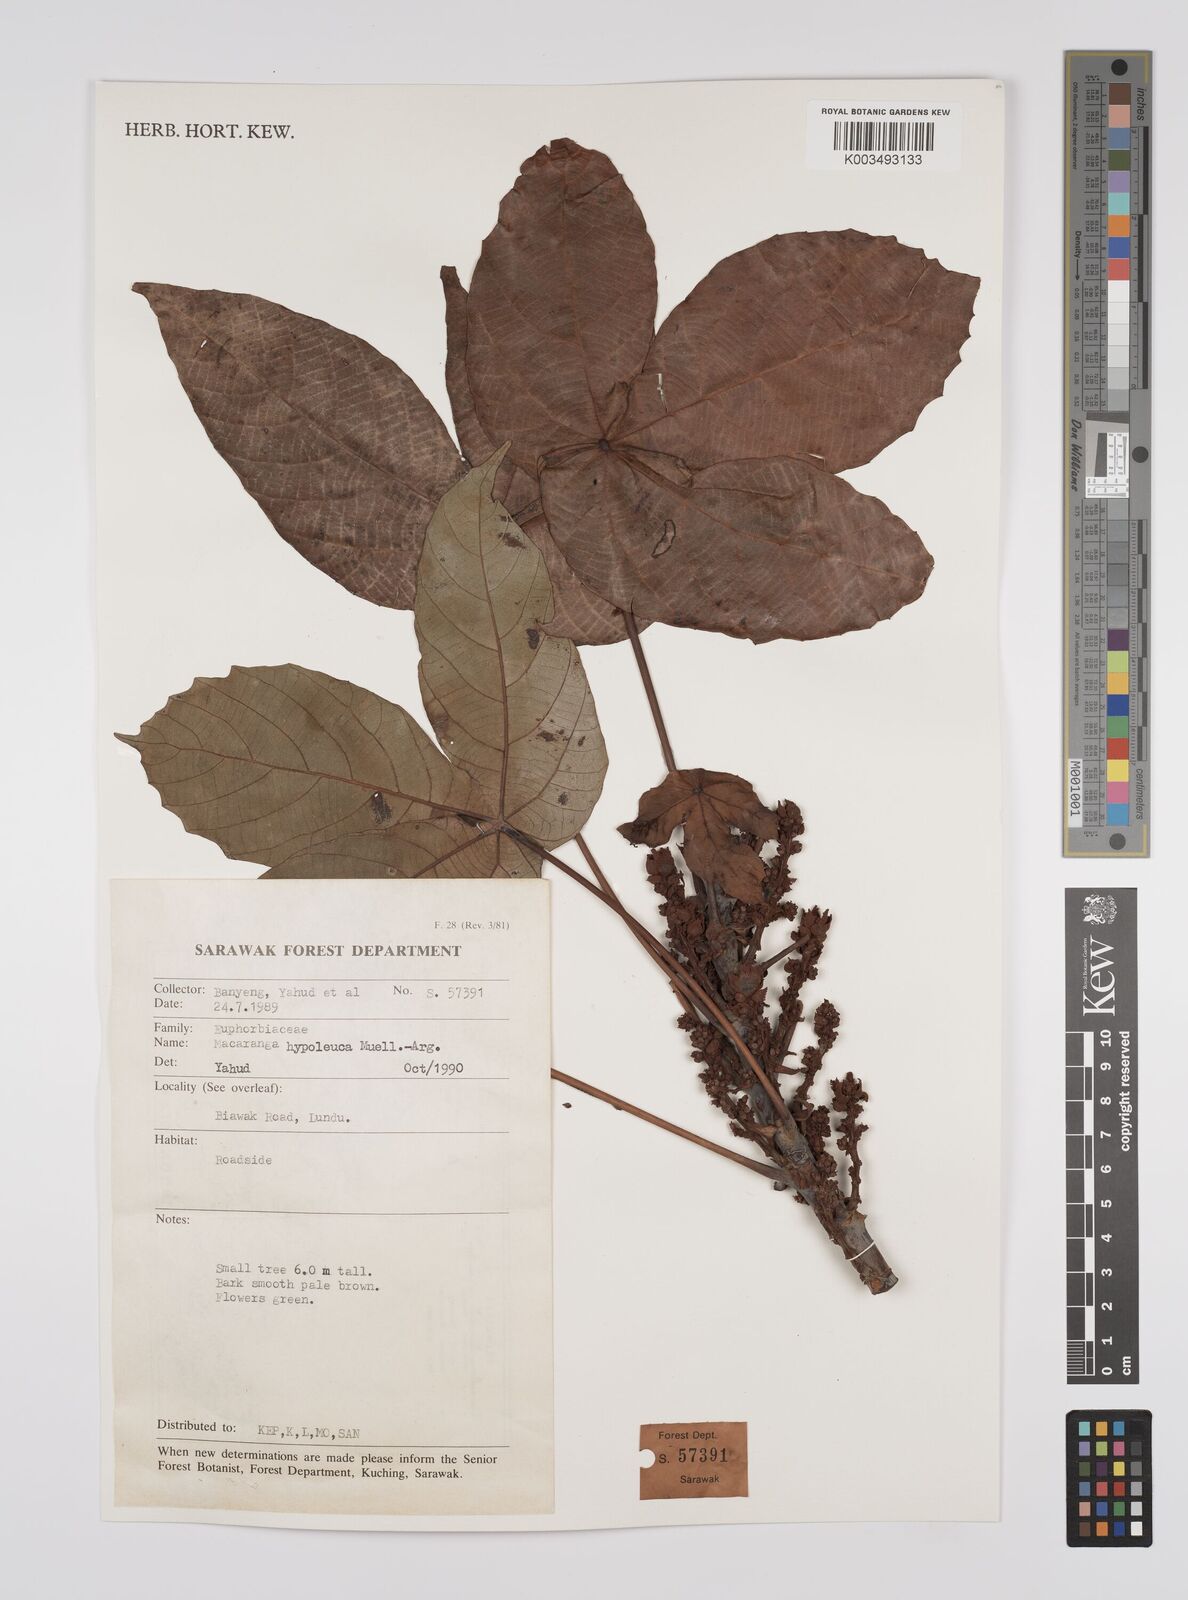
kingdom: Plantae
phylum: Tracheophyta
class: Magnoliopsida
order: Malpighiales
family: Euphorbiaceae
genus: Macaranga
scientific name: Macaranga hypoleuca
